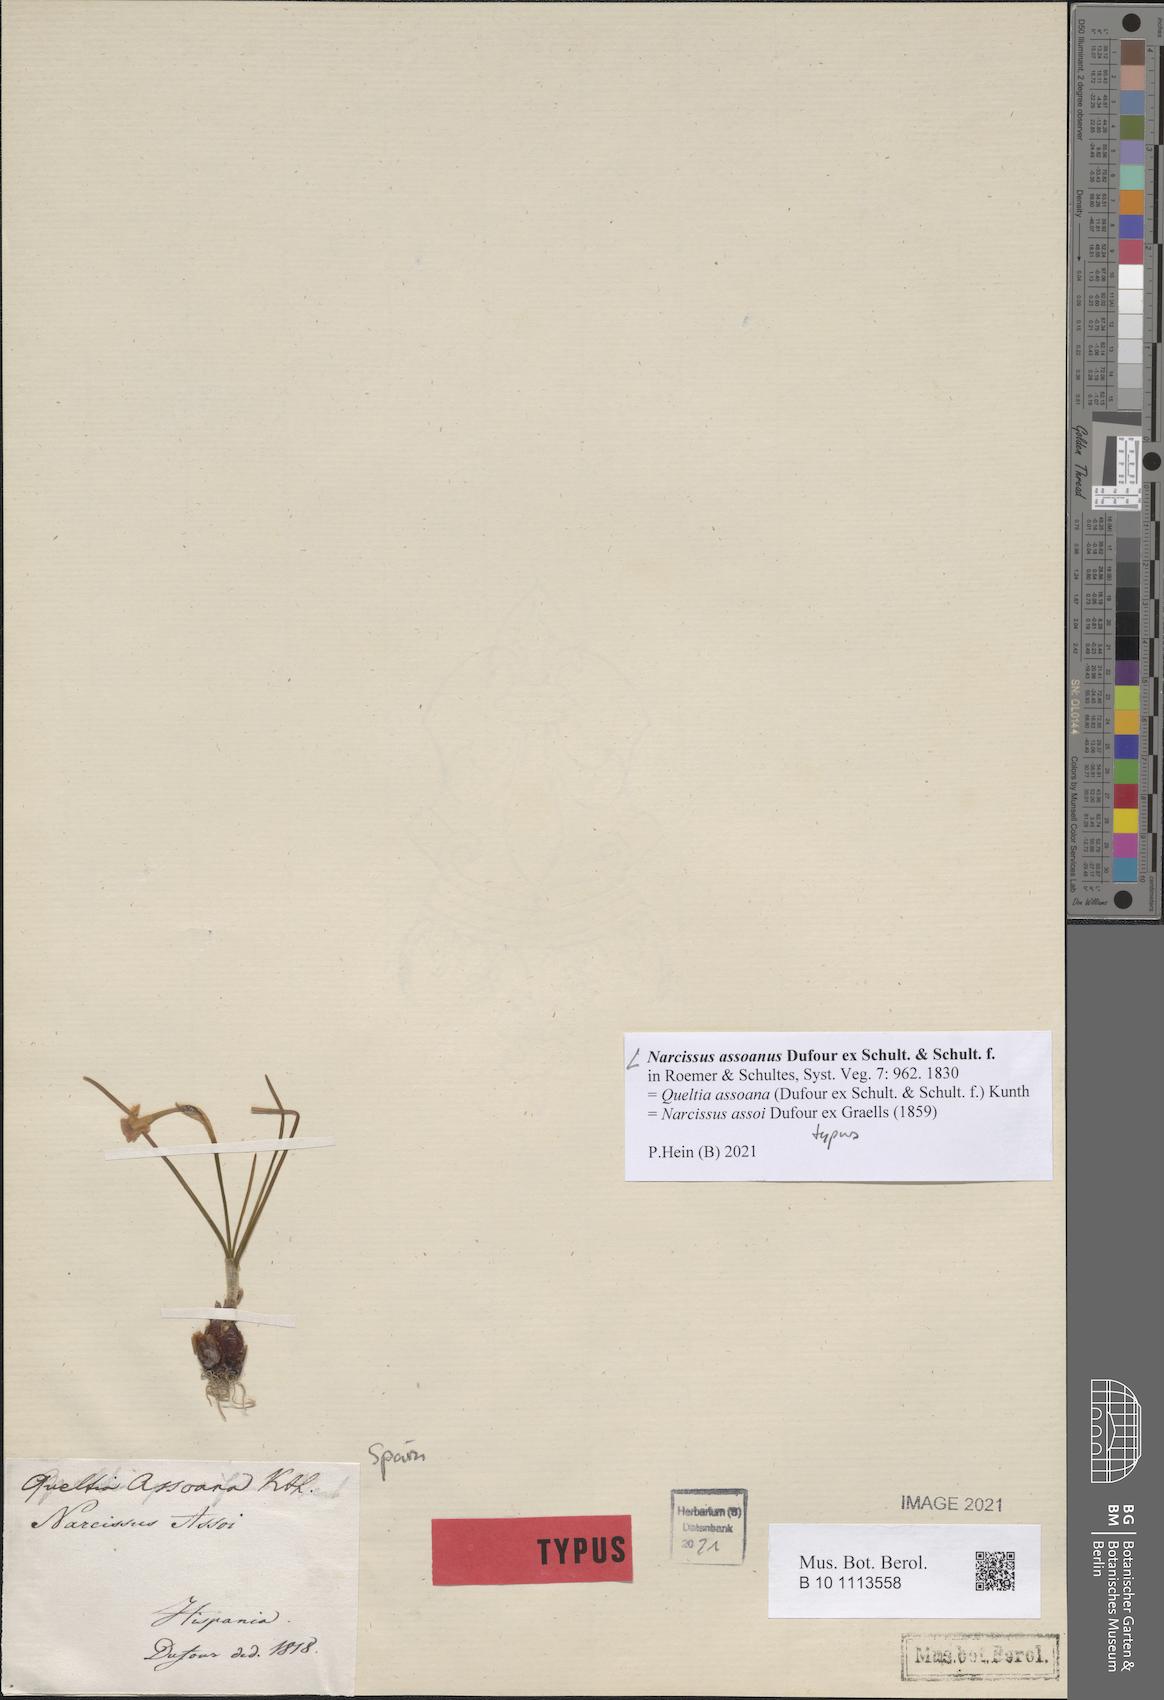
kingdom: Plantae
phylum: Tracheophyta
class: Liliopsida
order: Asparagales
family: Amaryllidaceae
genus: Narcissus
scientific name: Narcissus assoanus
